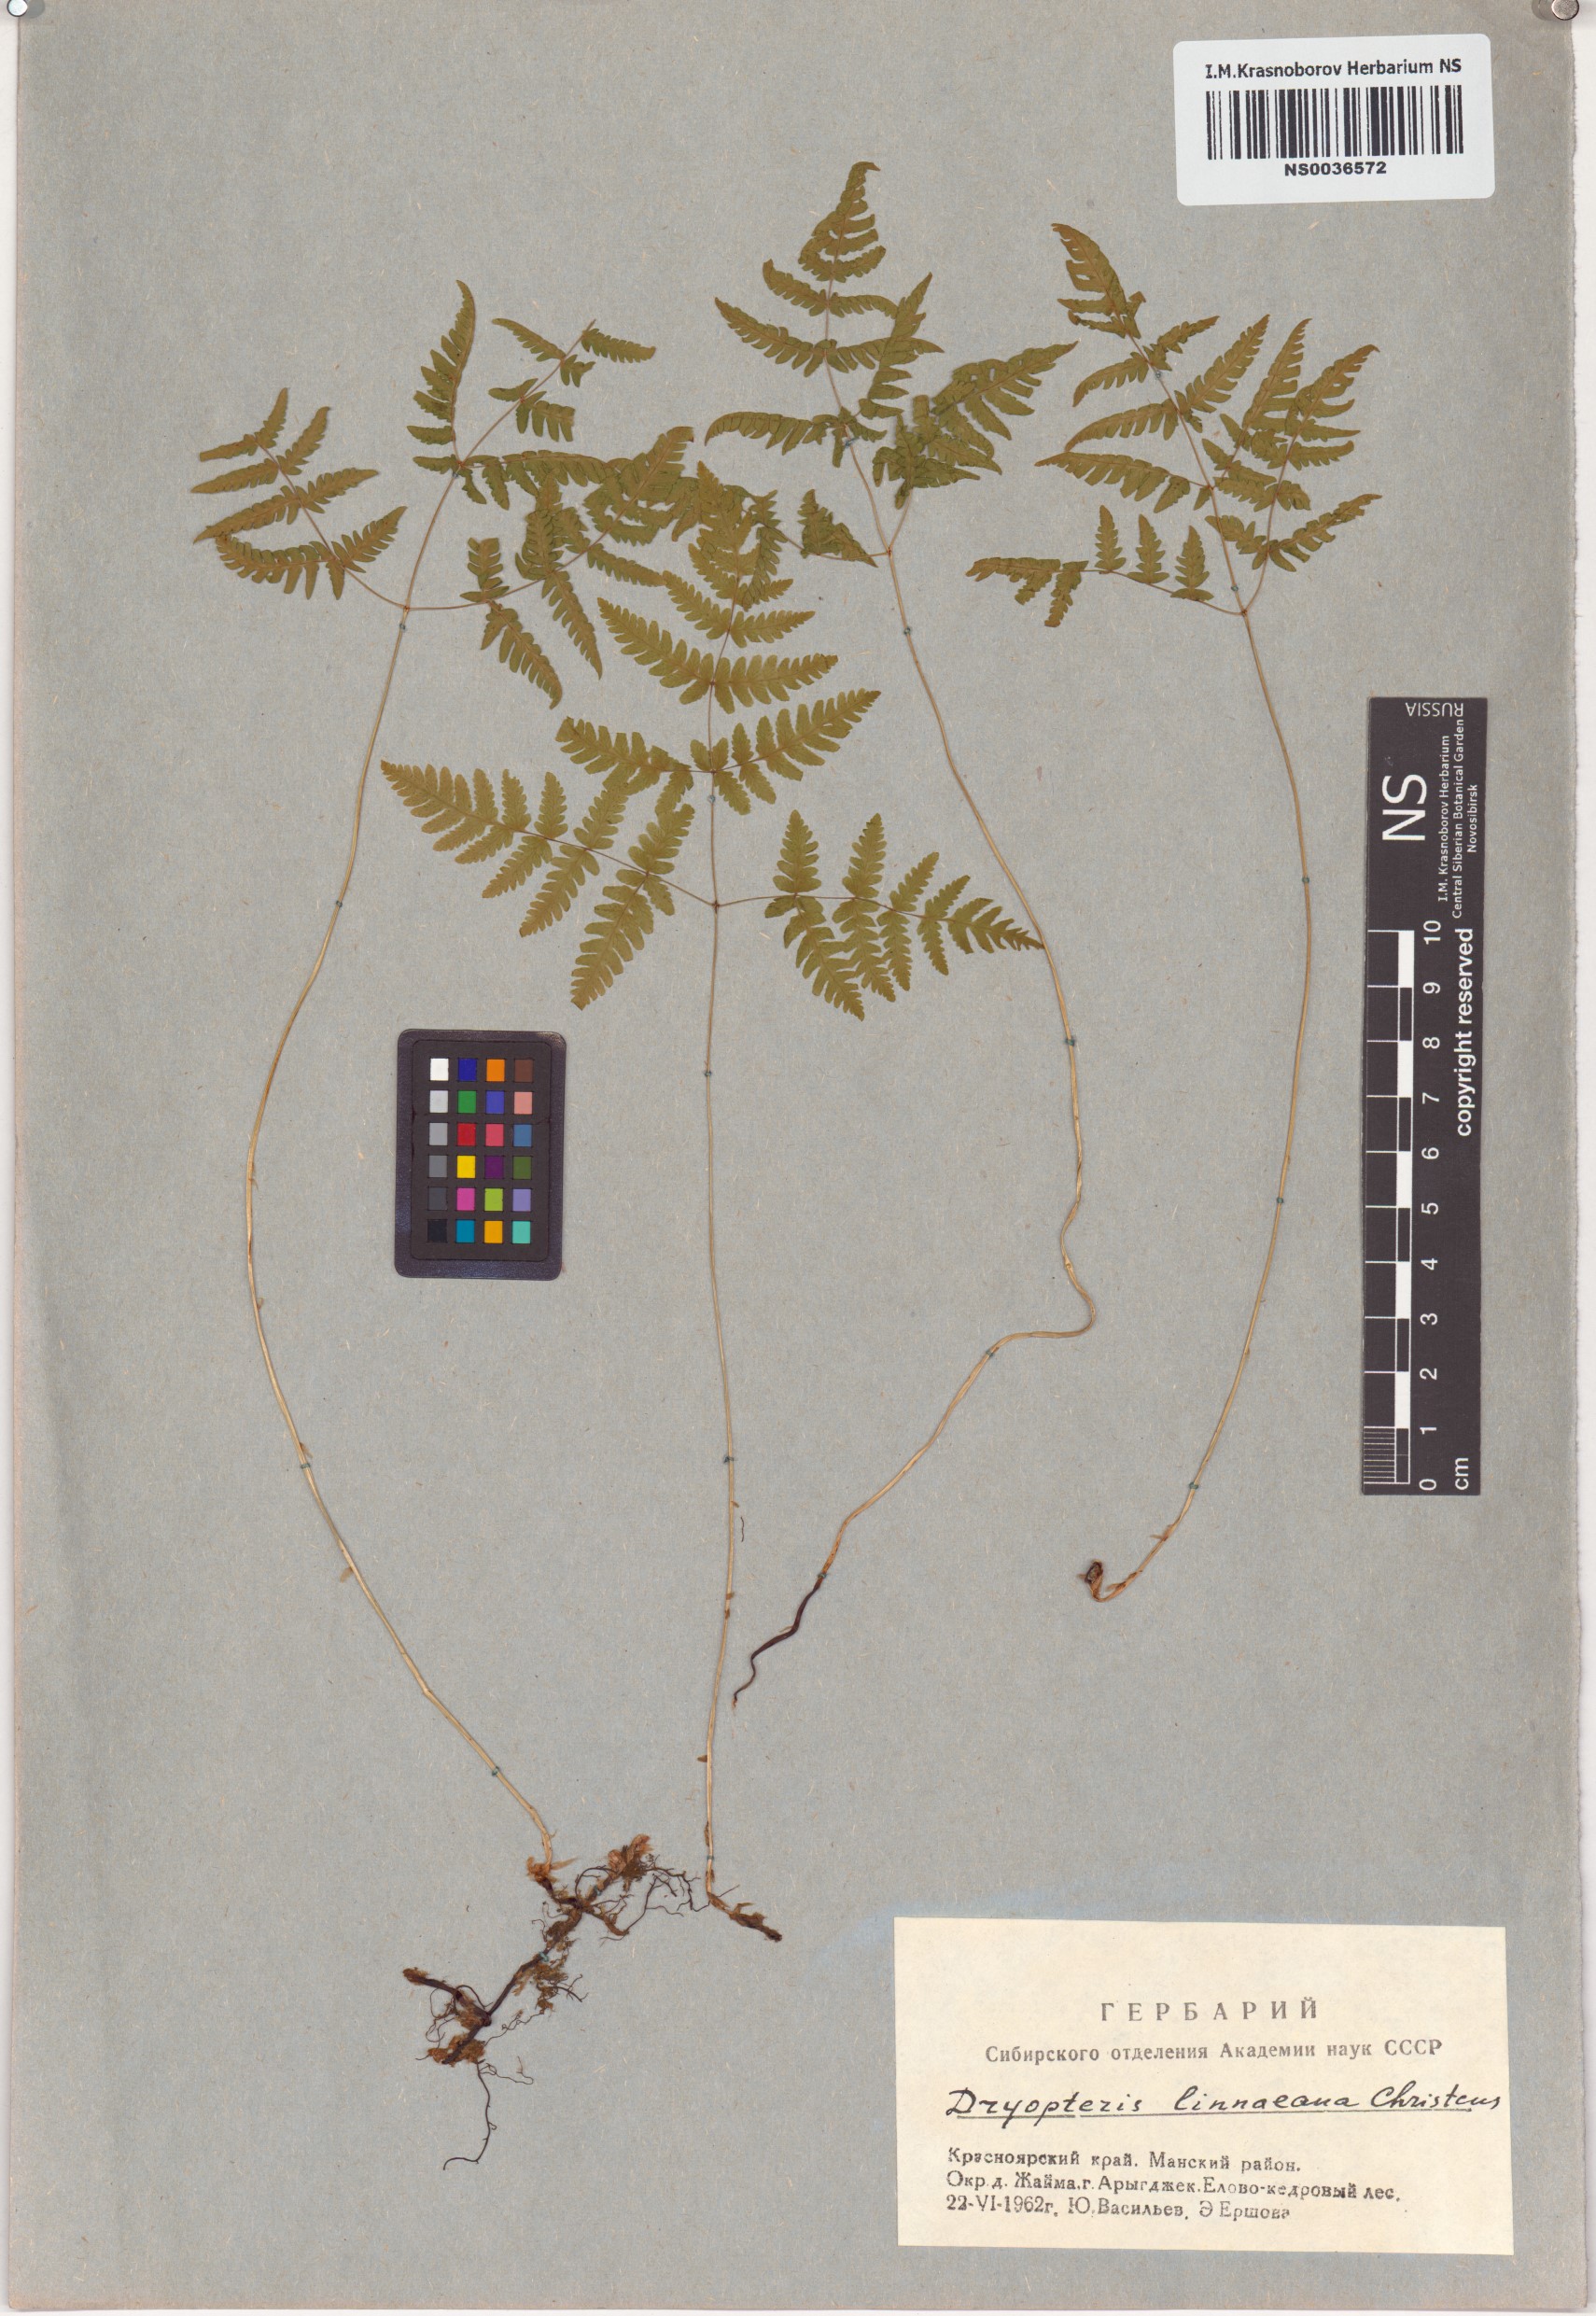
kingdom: Plantae
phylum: Tracheophyta
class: Polypodiopsida
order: Polypodiales
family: Cystopteridaceae
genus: Gymnocarpium
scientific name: Gymnocarpium dryopteris
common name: Oak fern
